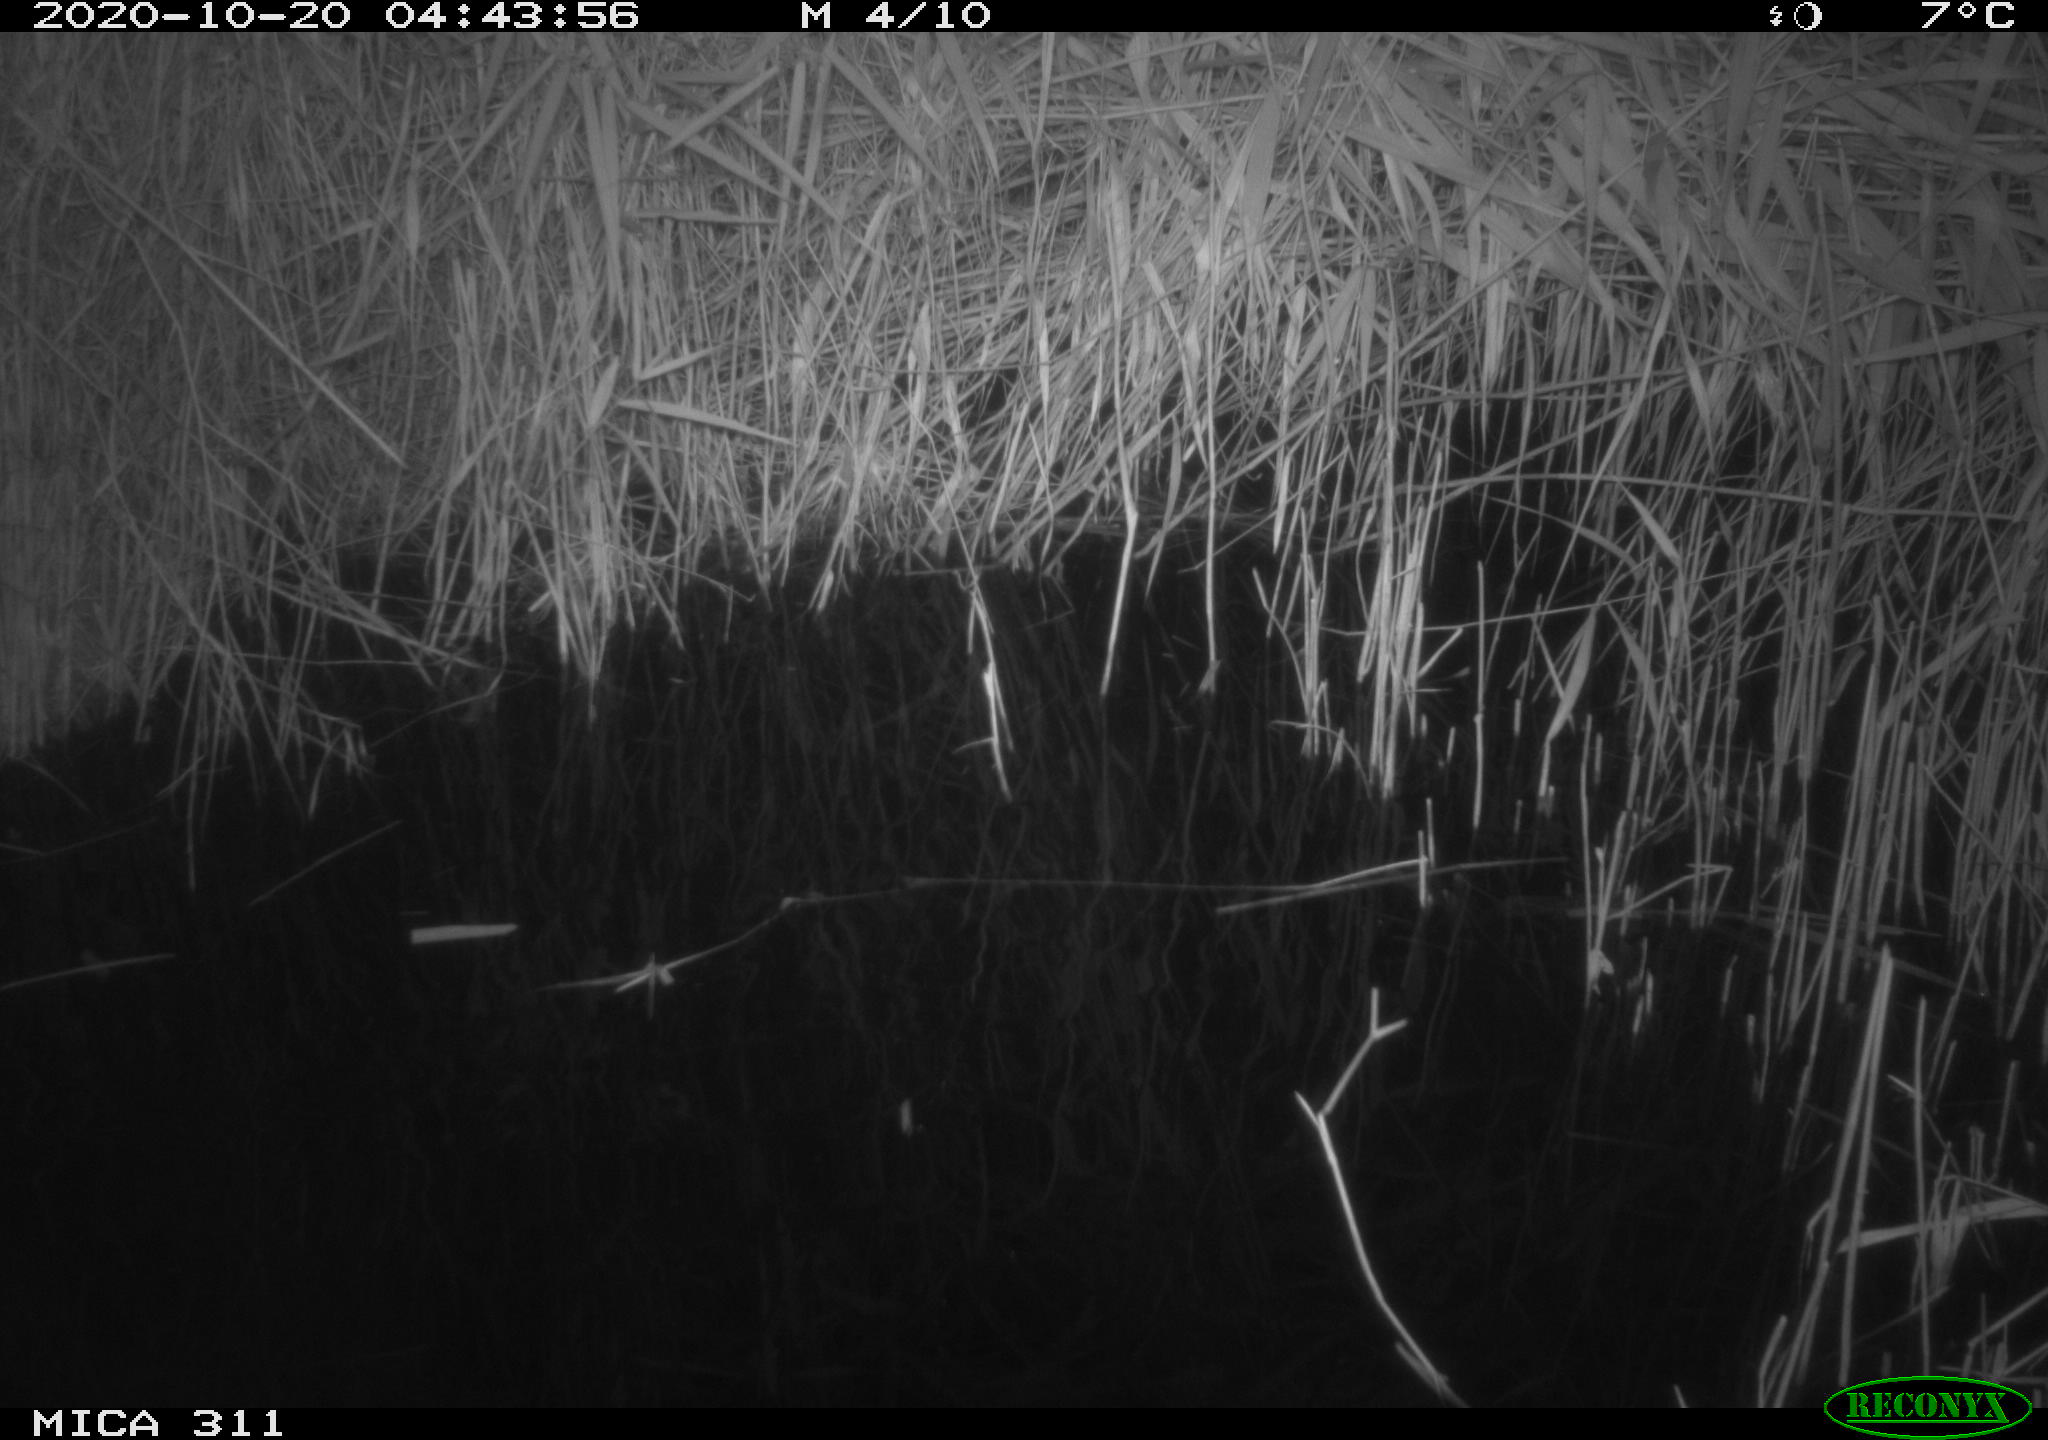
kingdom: Animalia
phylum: Chordata
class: Mammalia
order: Rodentia
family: Muridae
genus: Apodemus
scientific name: Apodemus sylvaticus
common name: Wood mouse
